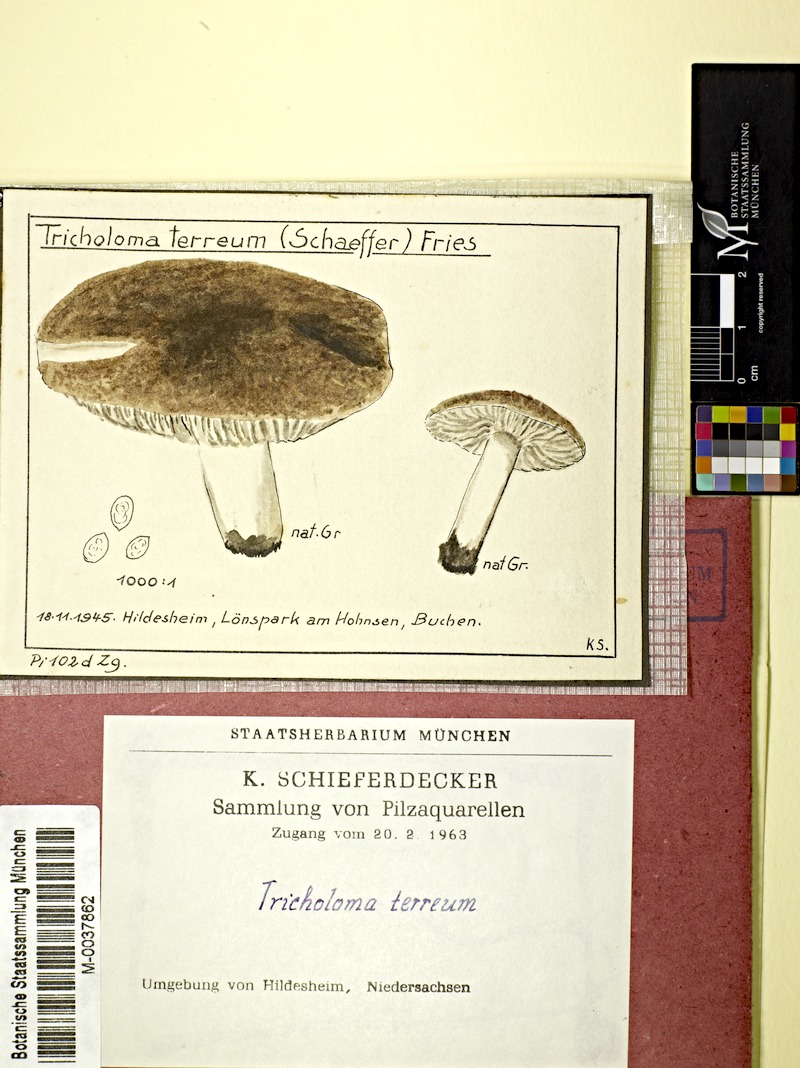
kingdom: Fungi
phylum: Basidiomycota
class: Agaricomycetes
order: Agaricales
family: Tricholomataceae
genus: Tricholoma
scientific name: Tricholoma terreum
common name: Grey knight
